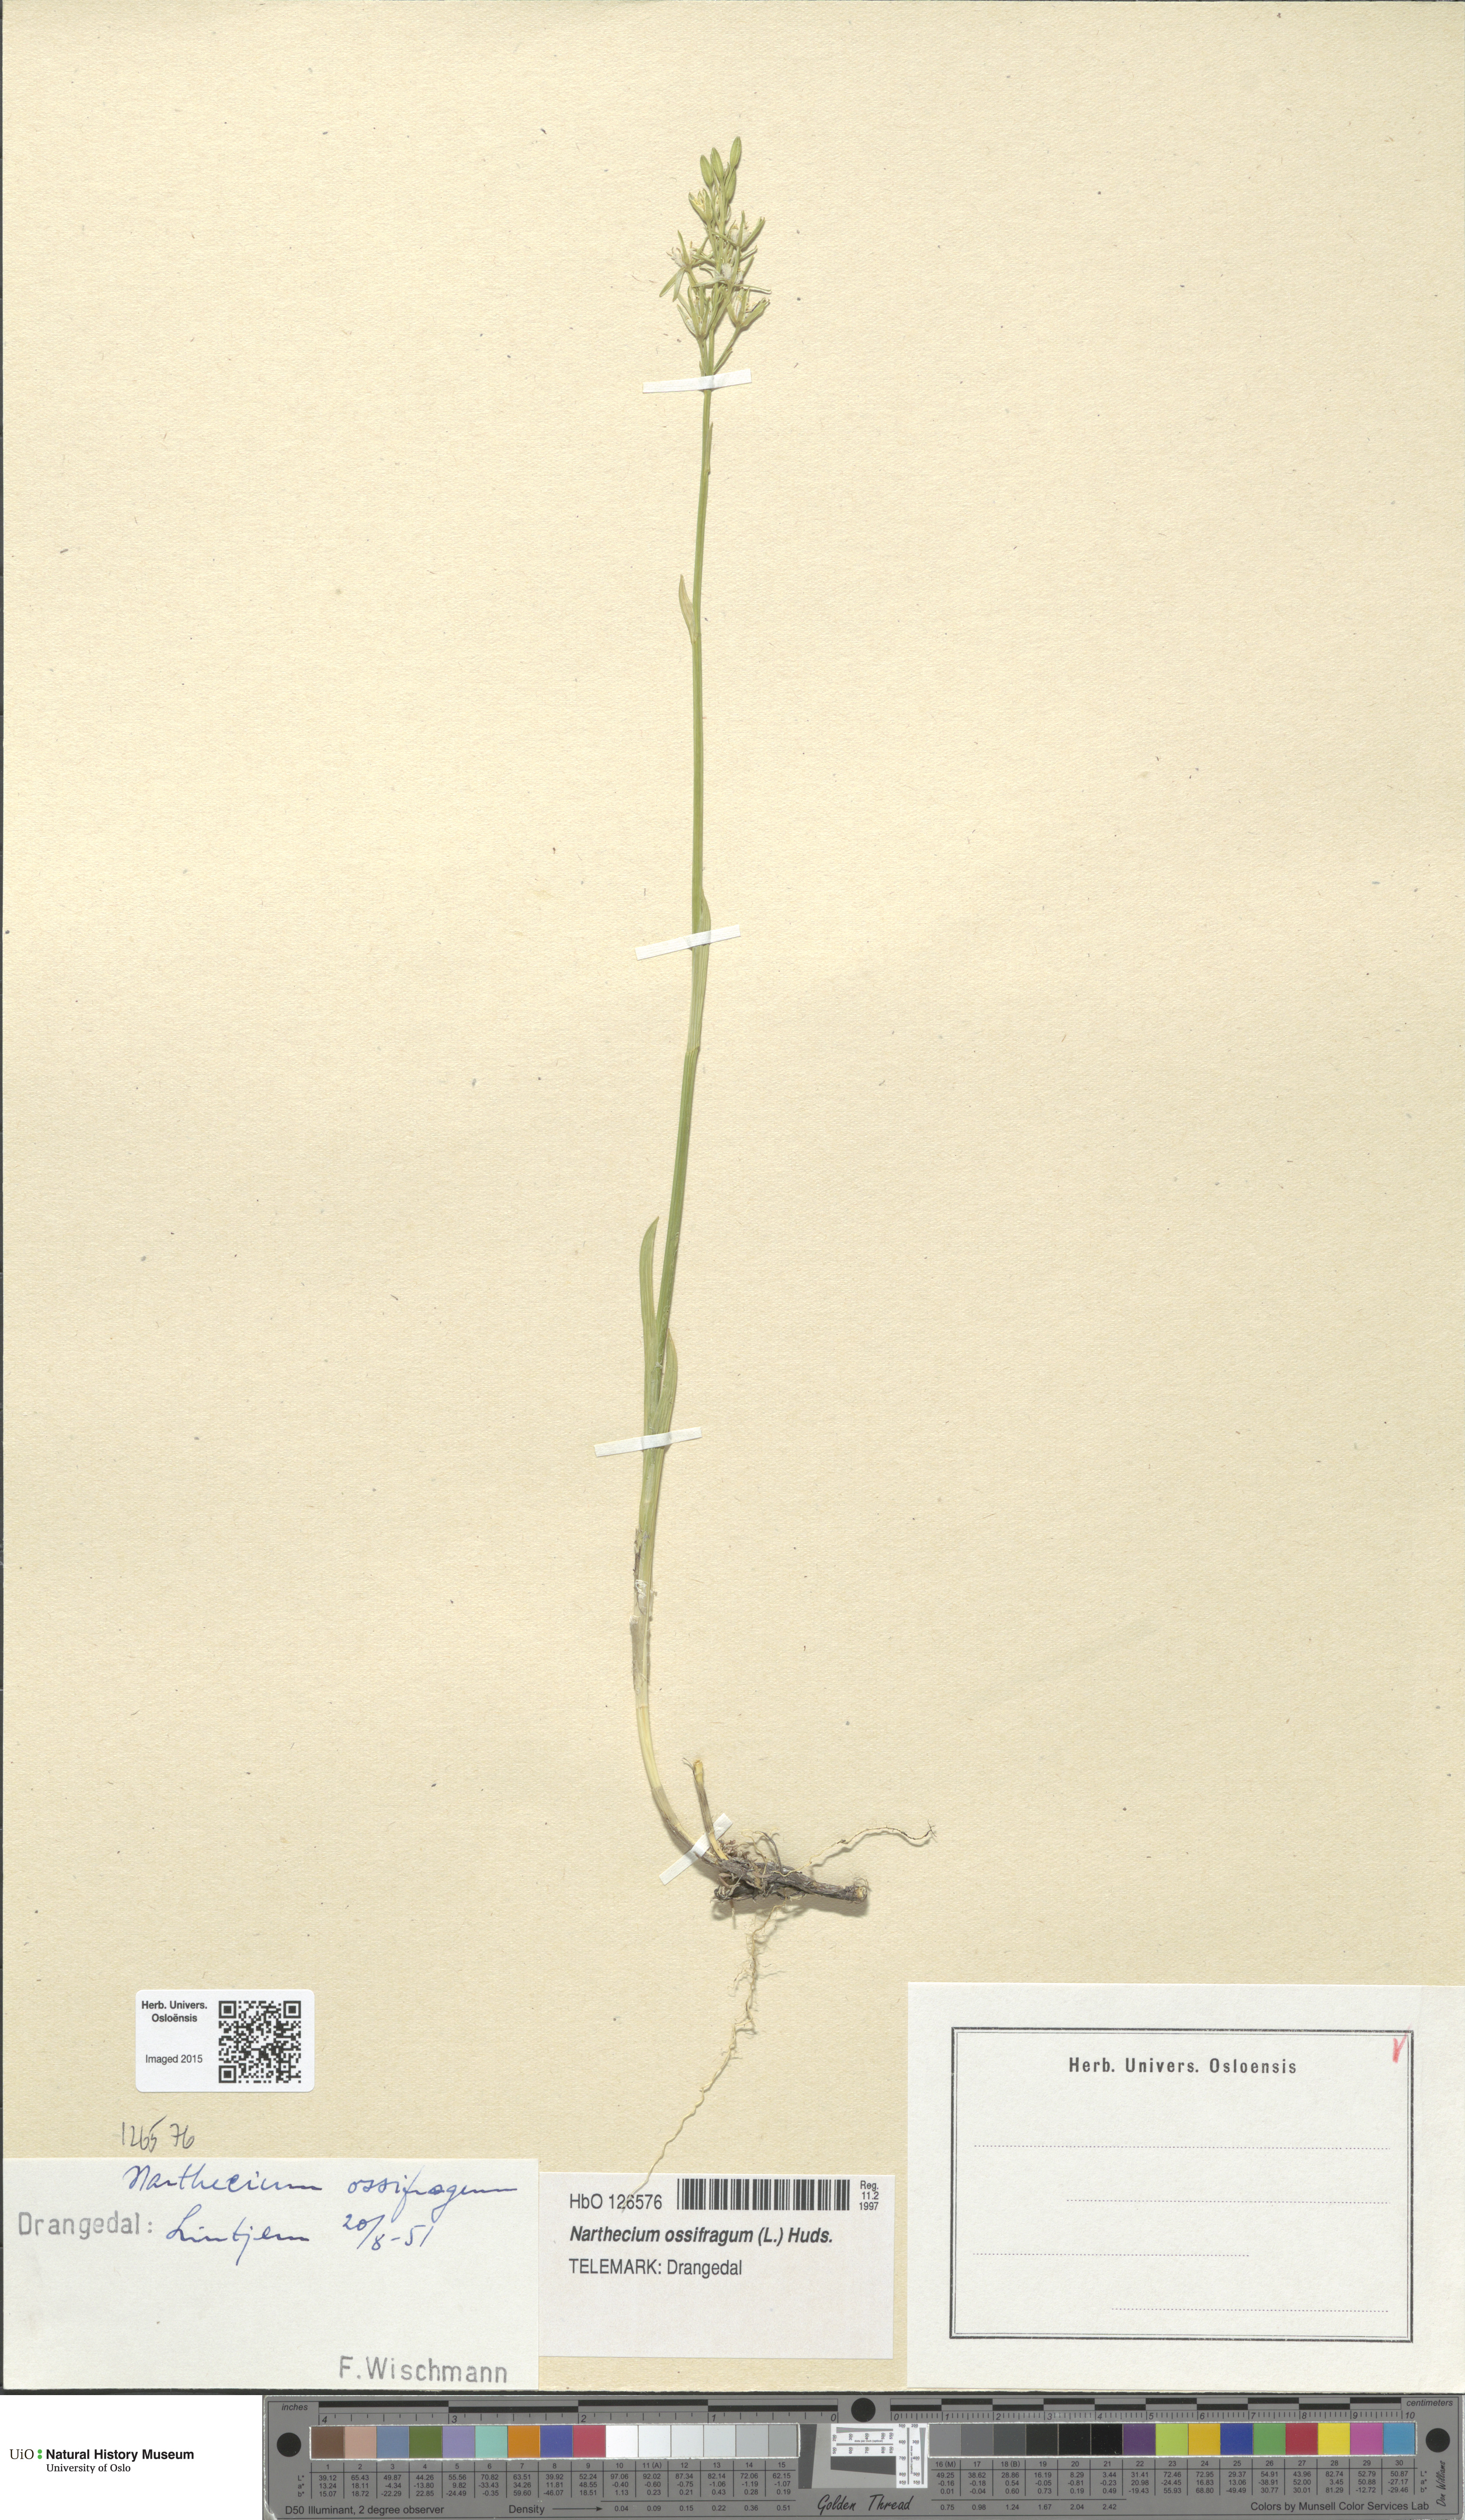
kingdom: Plantae
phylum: Tracheophyta
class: Liliopsida
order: Dioscoreales
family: Nartheciaceae
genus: Narthecium
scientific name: Narthecium ossifragum
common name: Bog asphodel
